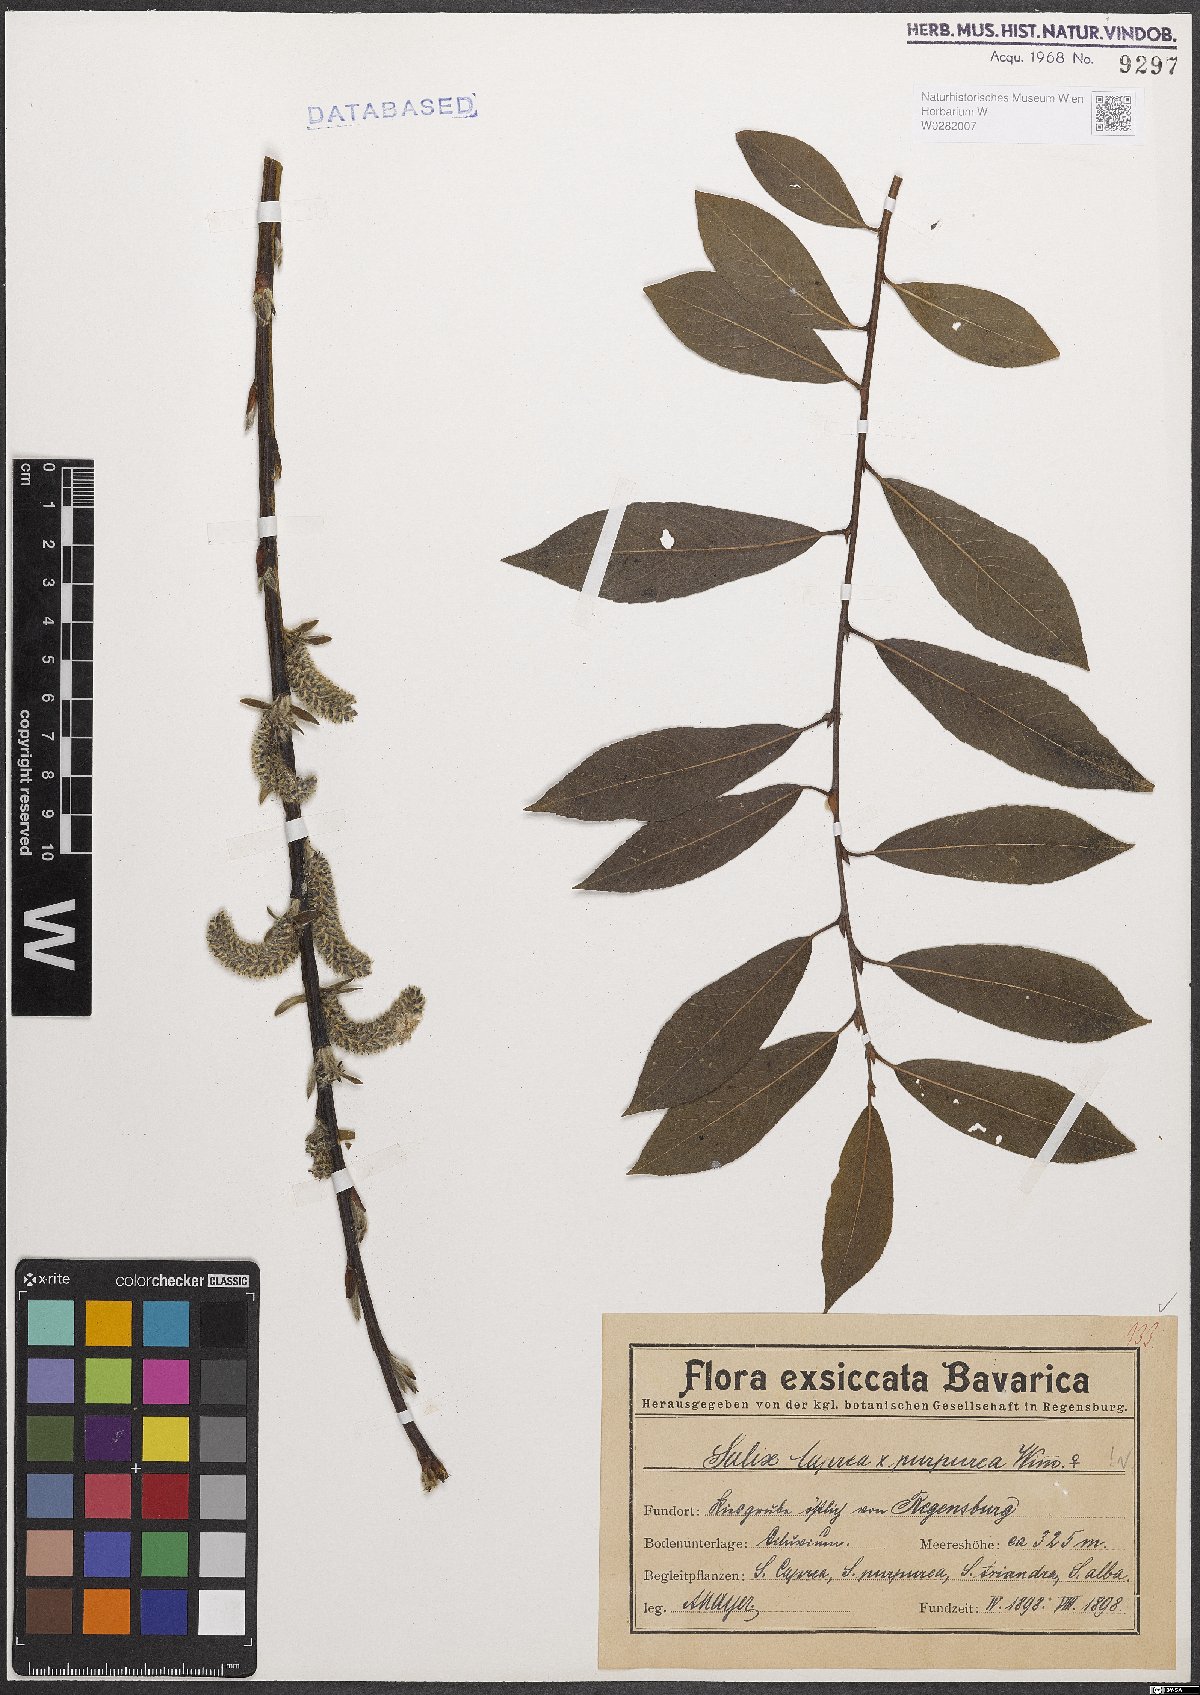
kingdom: Plantae
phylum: Tracheophyta
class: Magnoliopsida
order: Malpighiales
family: Salicaceae
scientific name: Salicaceae
